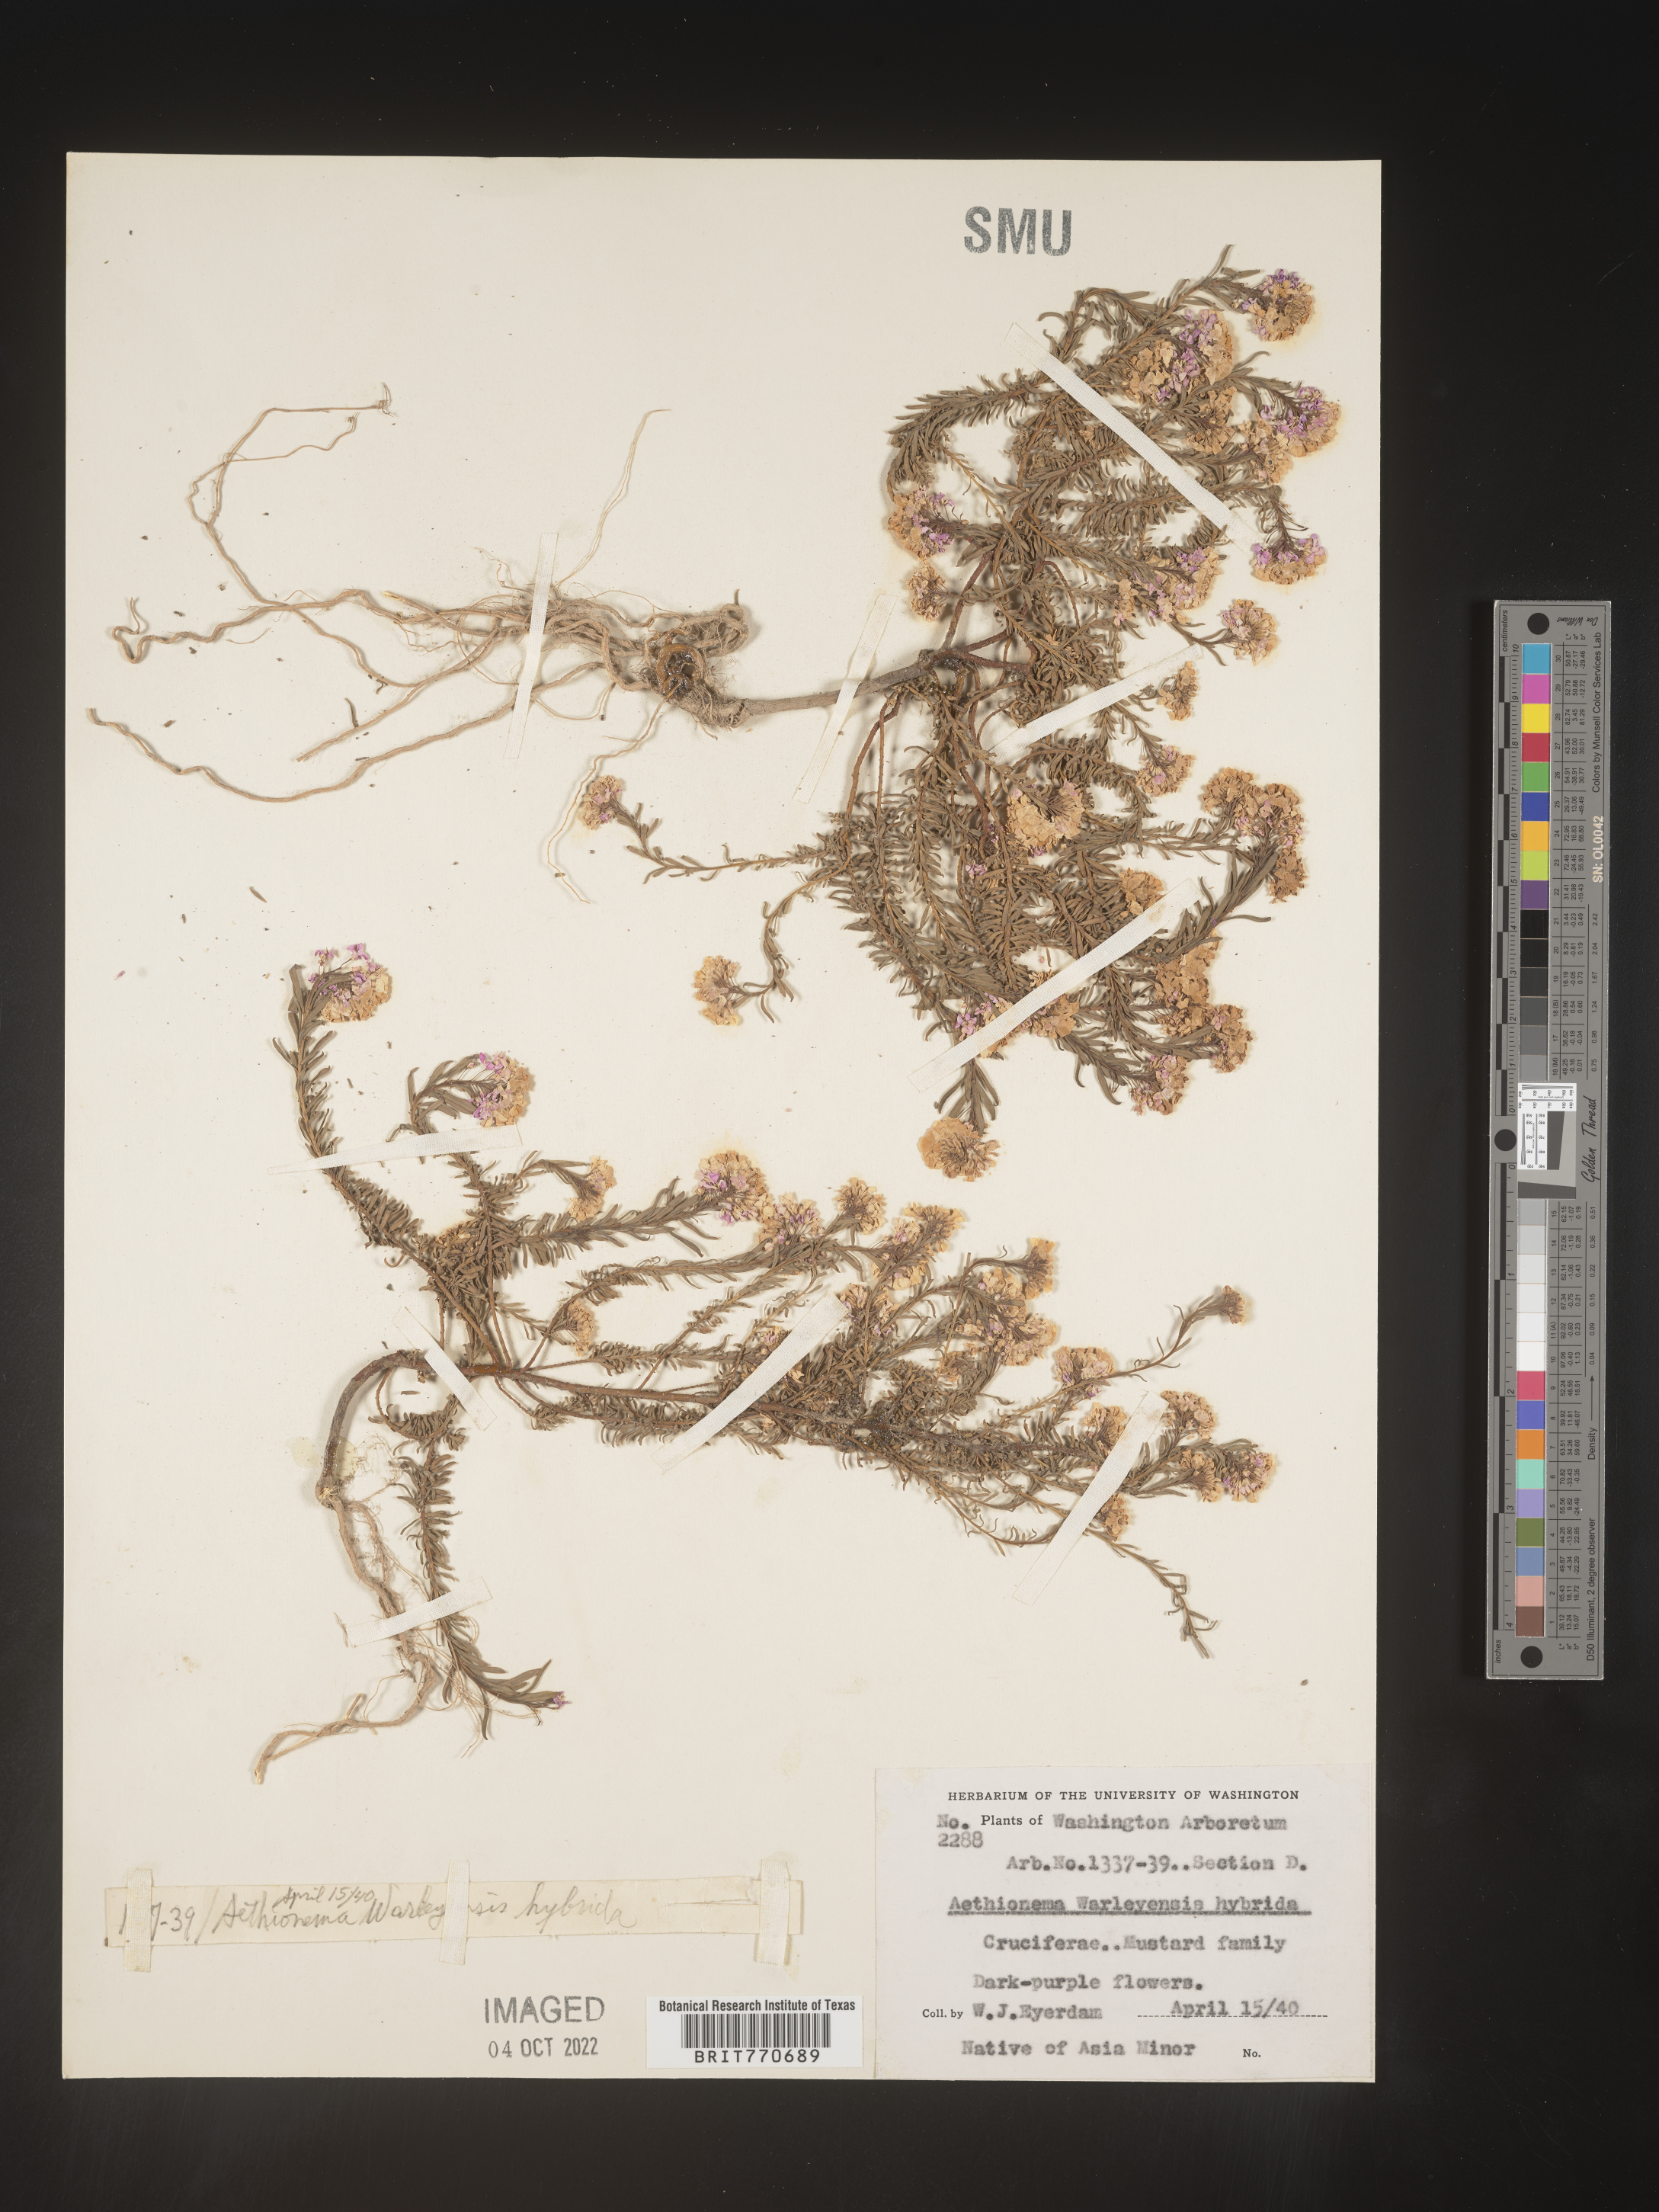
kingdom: Plantae
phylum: Tracheophyta
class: Magnoliopsida
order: Brassicales
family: Brassicaceae
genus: Aethionema
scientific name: Aethionema
